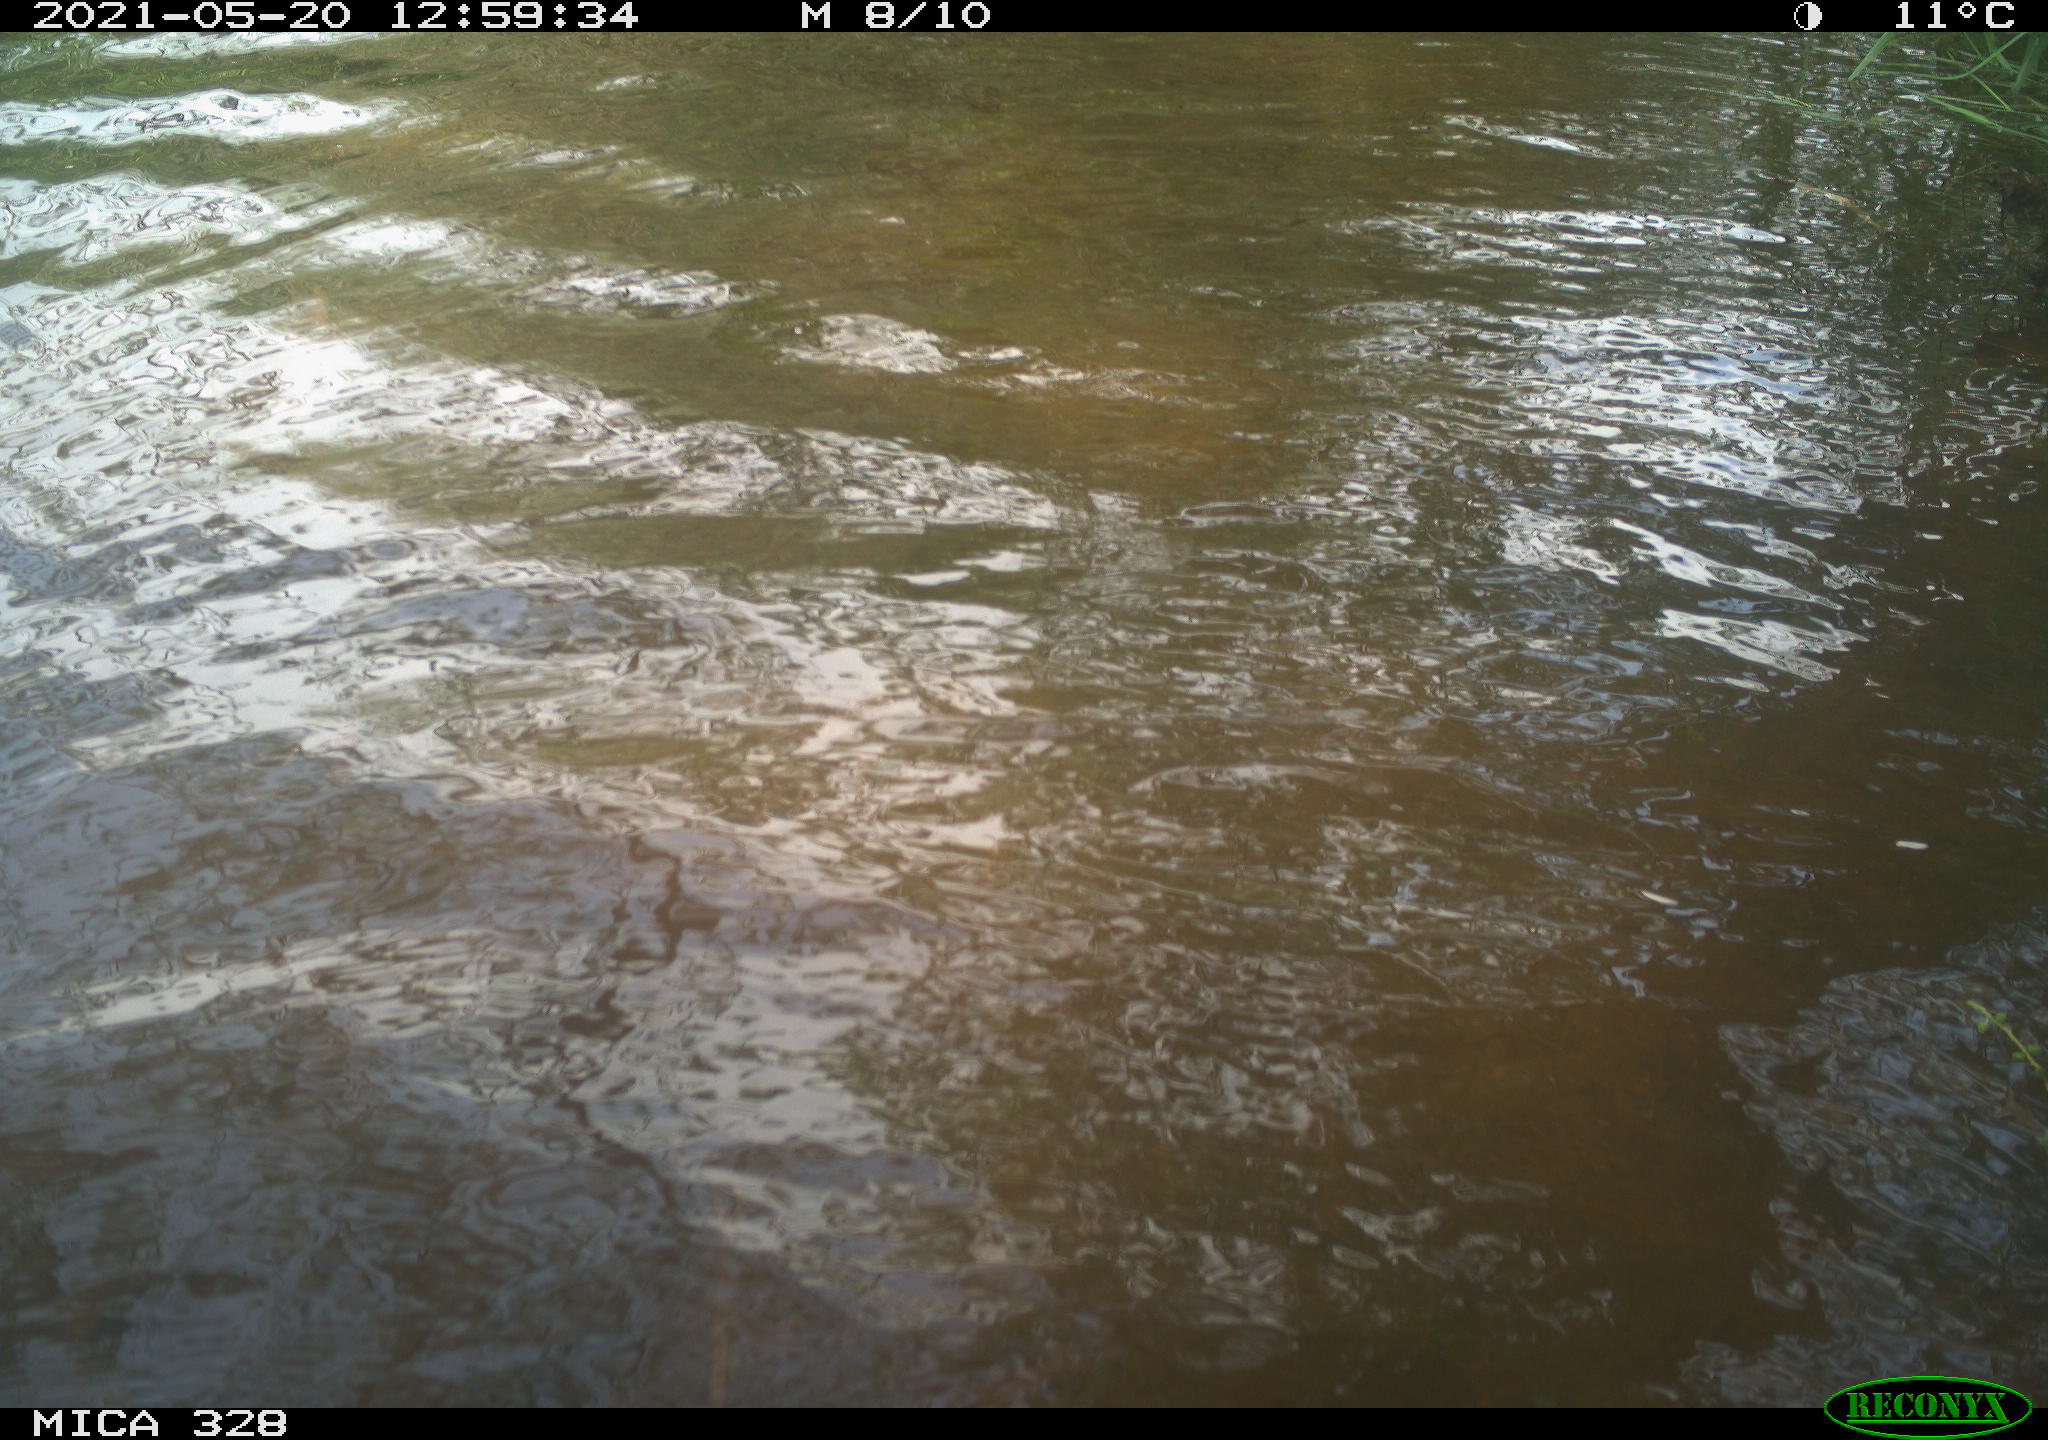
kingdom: Animalia
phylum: Chordata
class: Mammalia
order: Rodentia
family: Cricetidae
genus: Ondatra
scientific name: Ondatra zibethicus
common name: Muskrat
